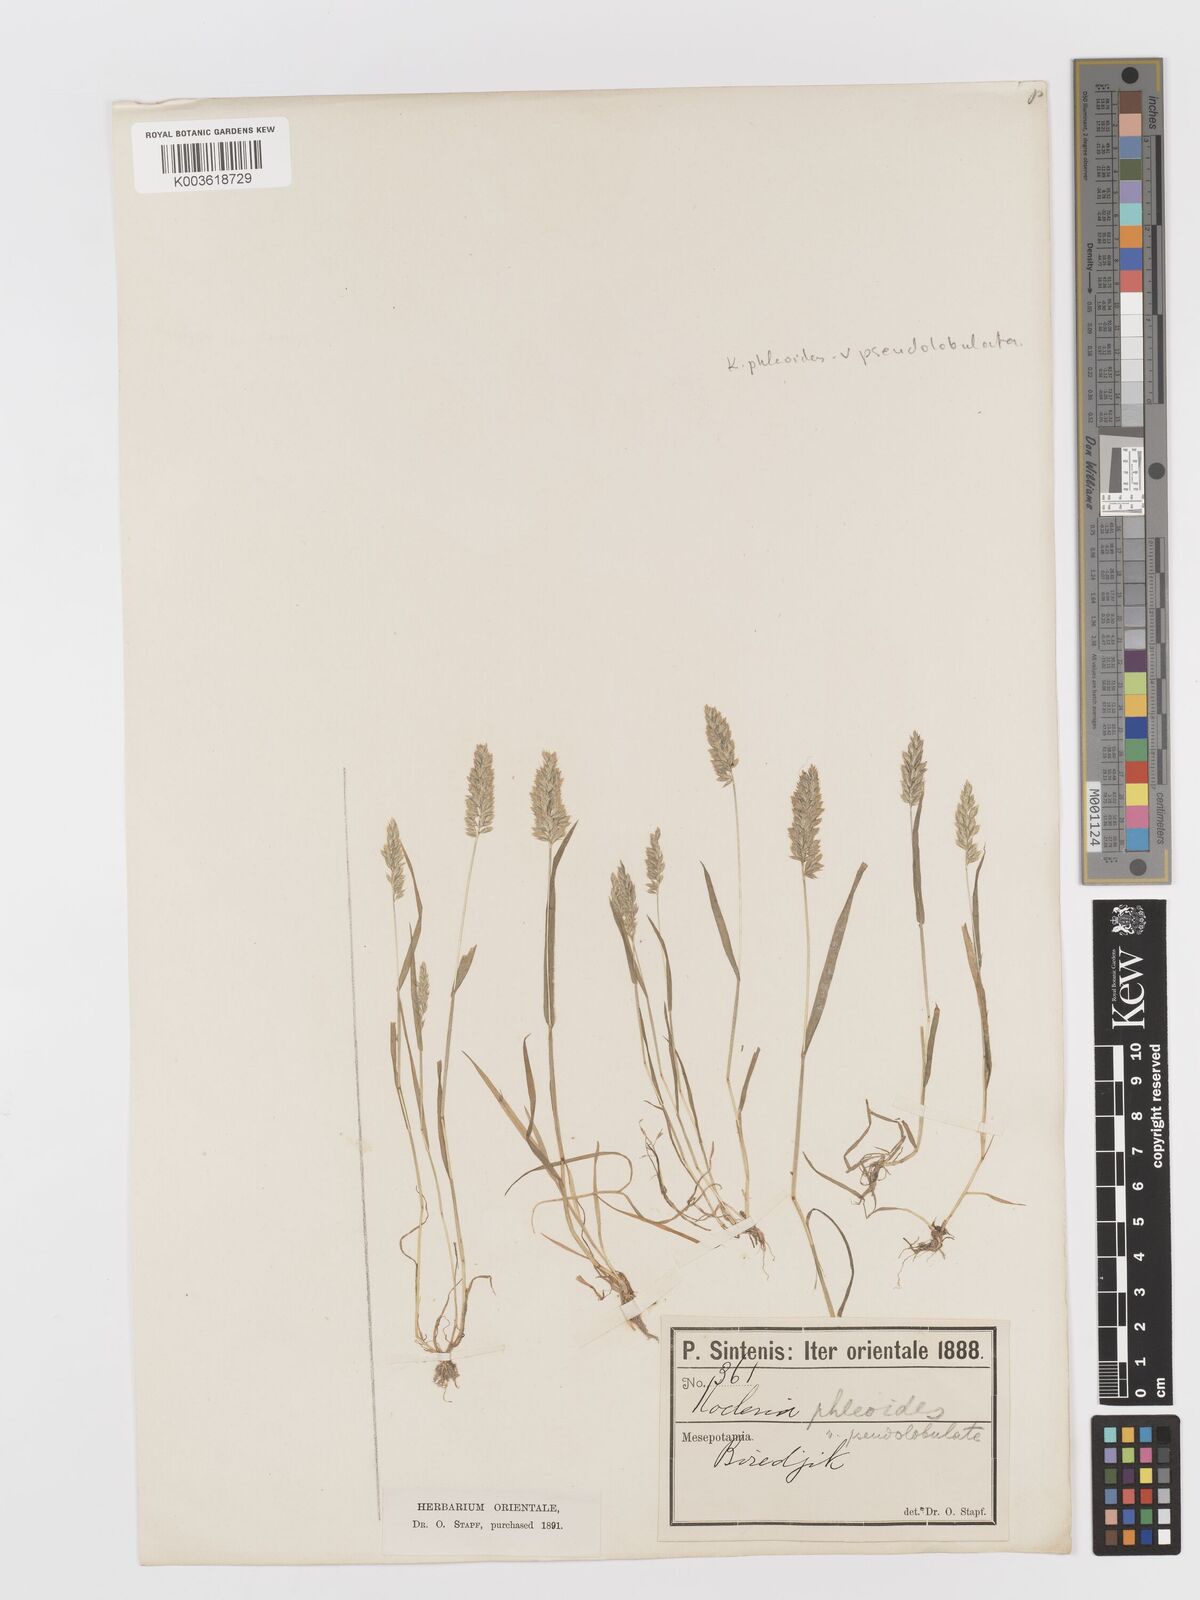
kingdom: Plantae
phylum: Tracheophyta
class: Liliopsida
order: Poales
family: Poaceae
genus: Rostraria
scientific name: Rostraria cristata
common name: Mediterranean hair-grass
